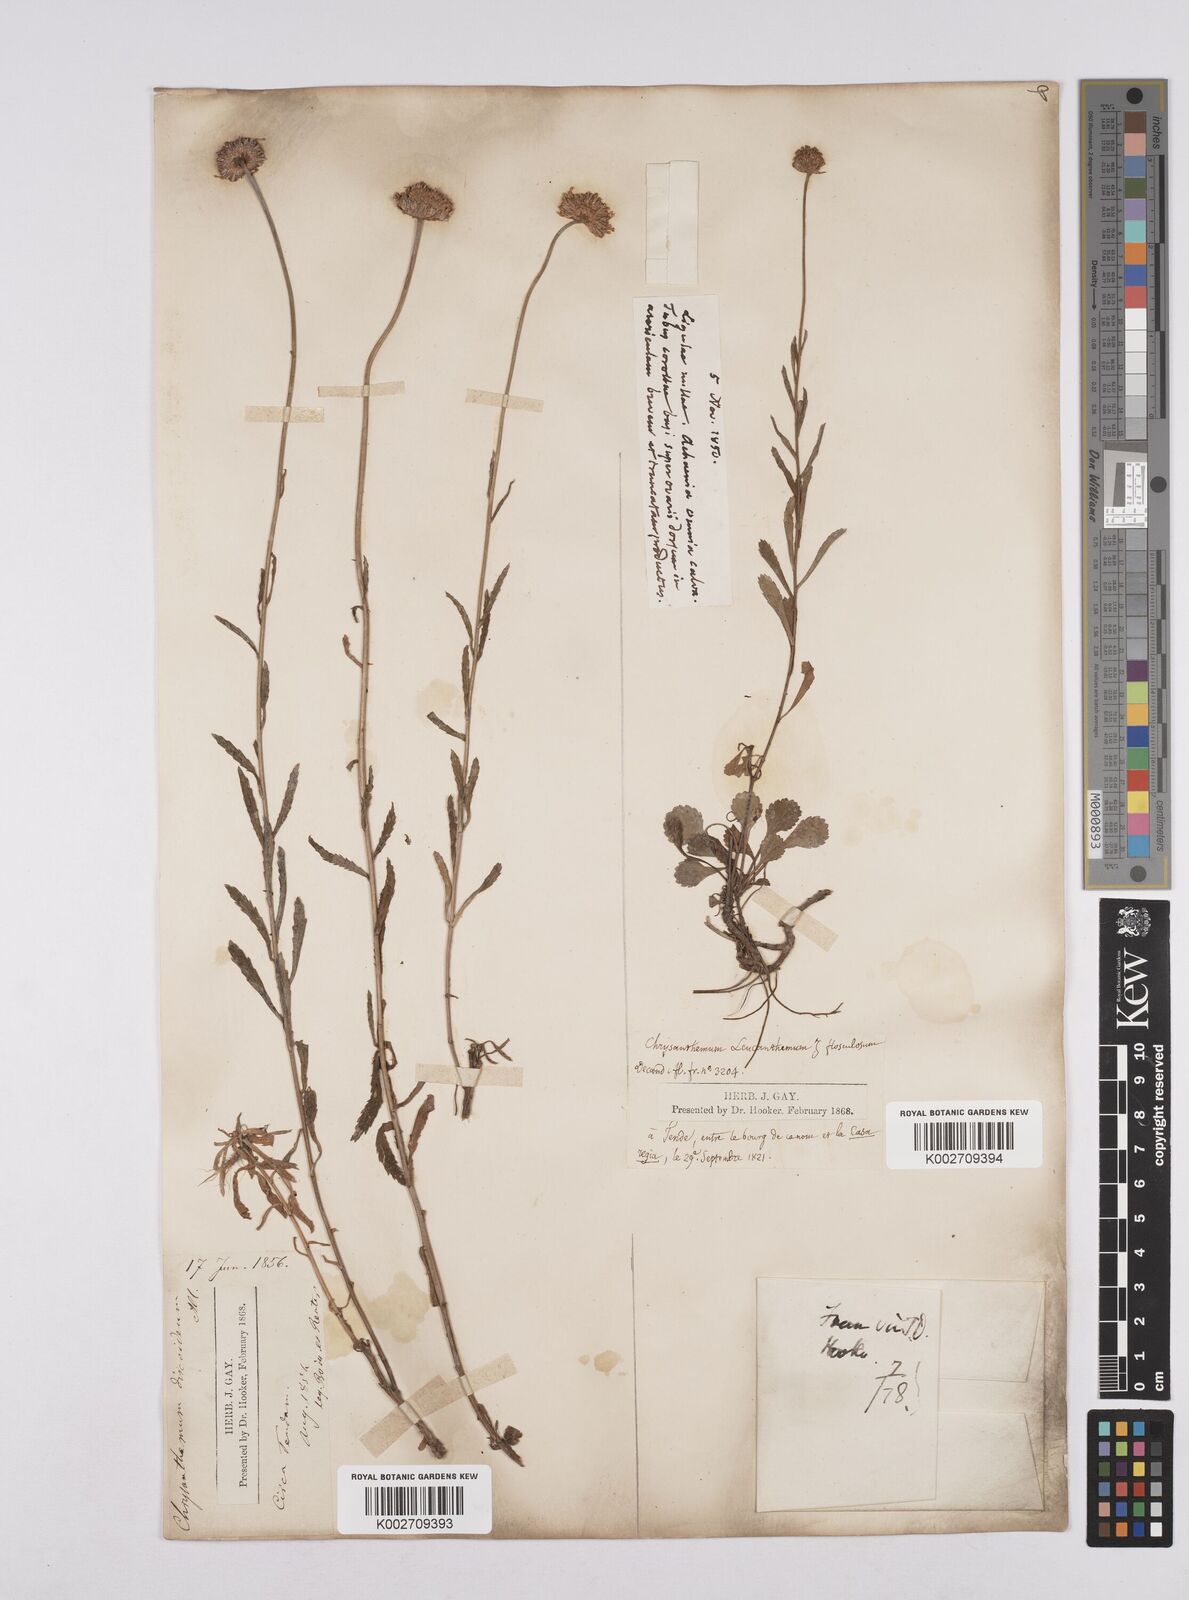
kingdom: Plantae
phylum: Tracheophyta
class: Magnoliopsida
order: Asterales
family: Asteraceae
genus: Leucanthemum
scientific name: Leucanthemum
